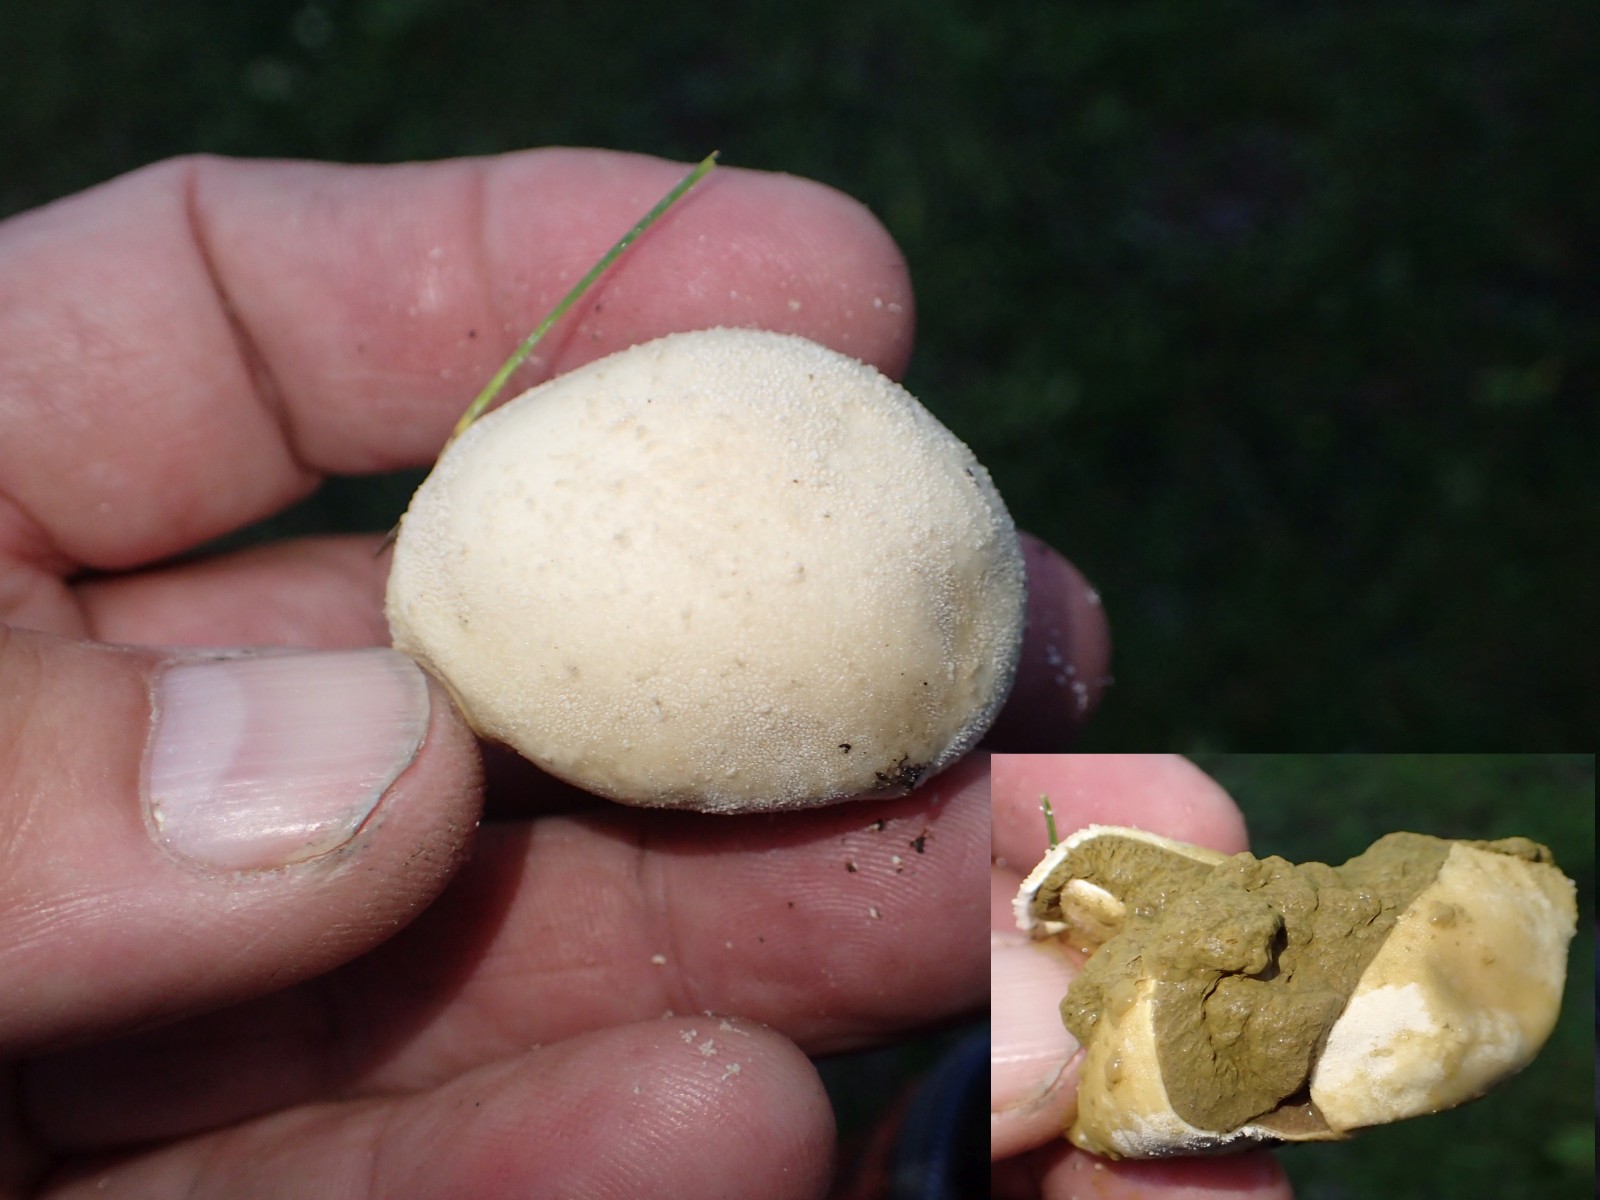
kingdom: Fungi
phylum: Basidiomycota
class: Agaricomycetes
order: Agaricales
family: Agaricaceae
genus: Lycoperdon
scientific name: Lycoperdon
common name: støvbold
